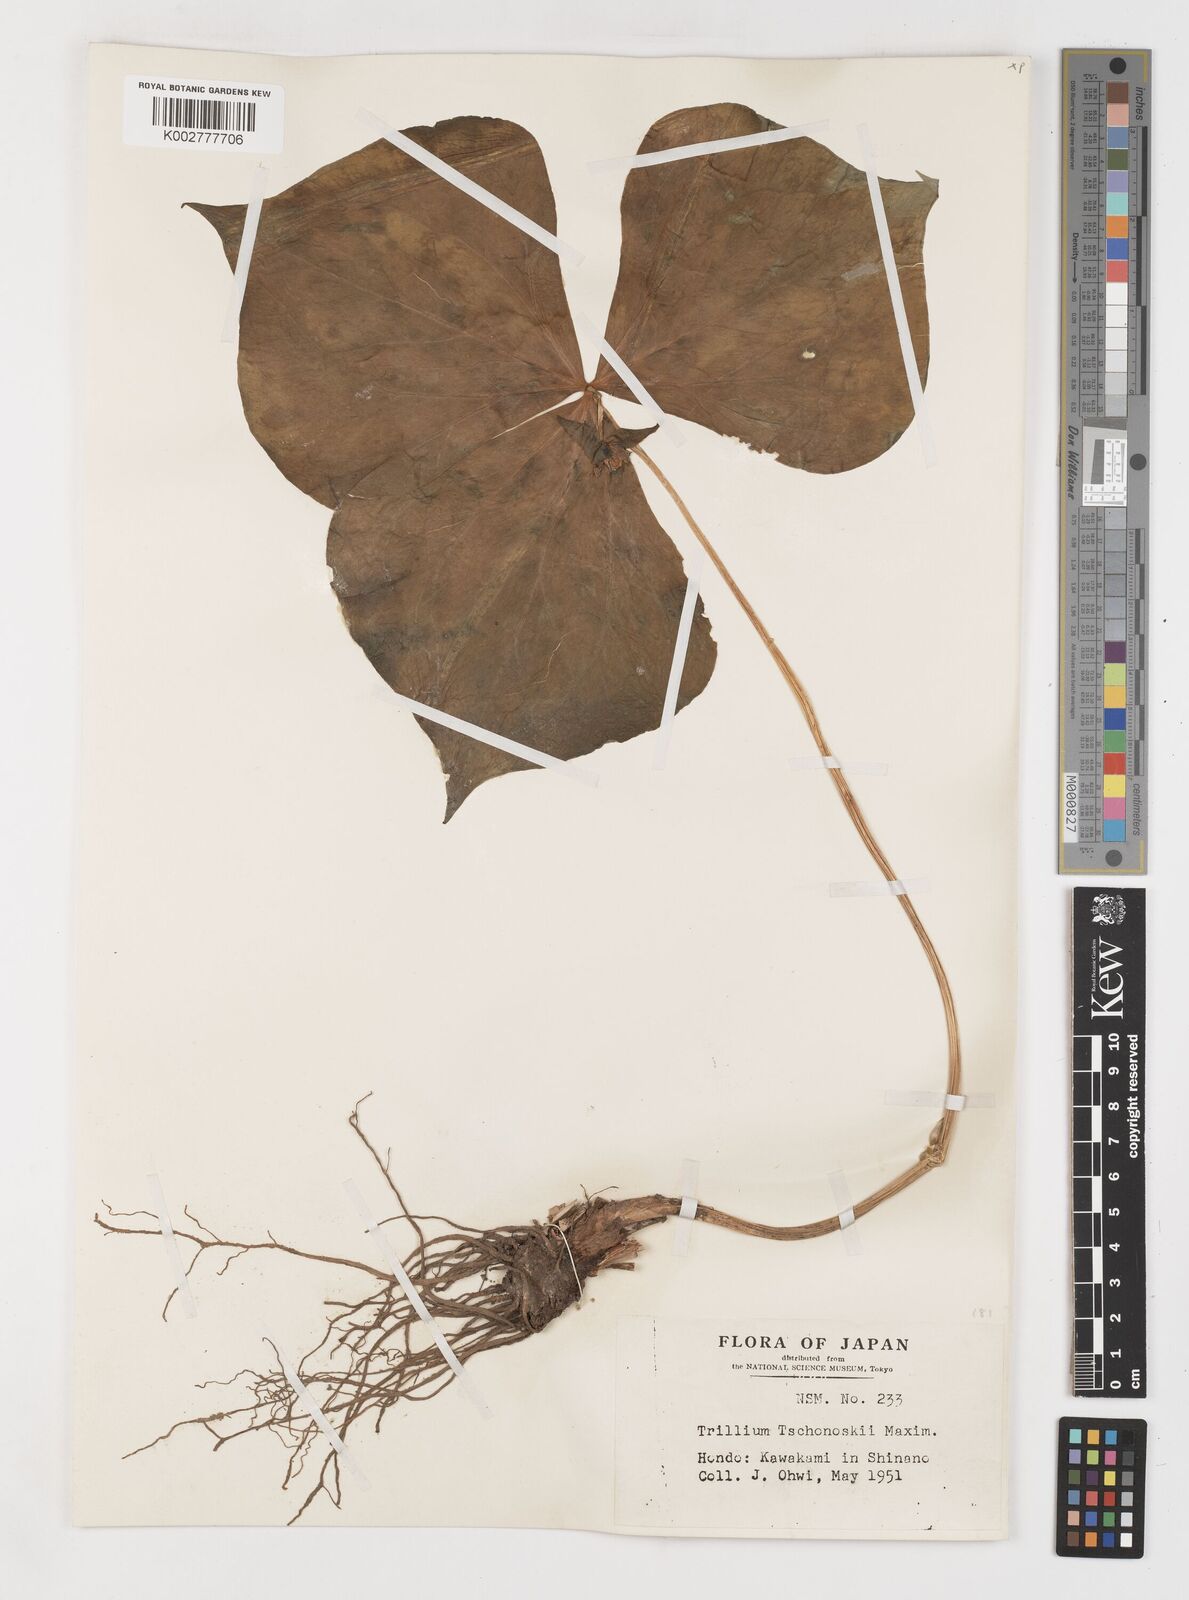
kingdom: Plantae
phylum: Tracheophyta
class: Liliopsida
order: Liliales
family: Melanthiaceae
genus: Trillium
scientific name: Trillium tschonoskii
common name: A pearl on head
